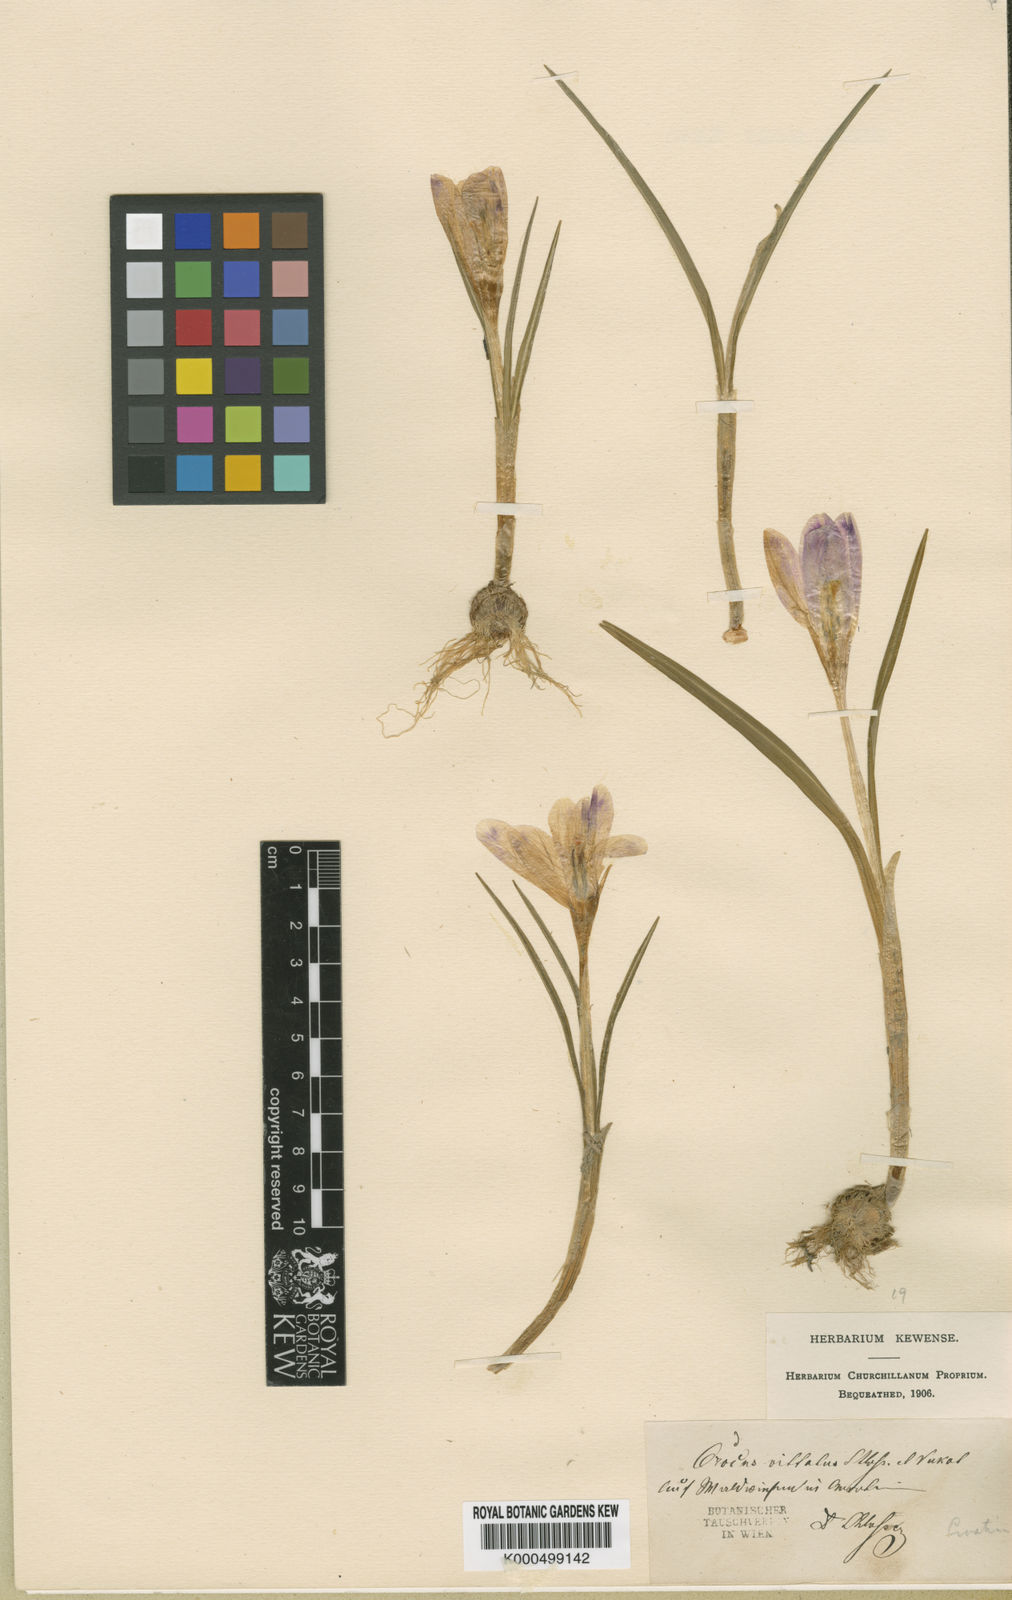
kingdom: Plantae
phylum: Tracheophyta
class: Liliopsida
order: Asparagales
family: Iridaceae
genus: Crocus
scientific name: Crocus
